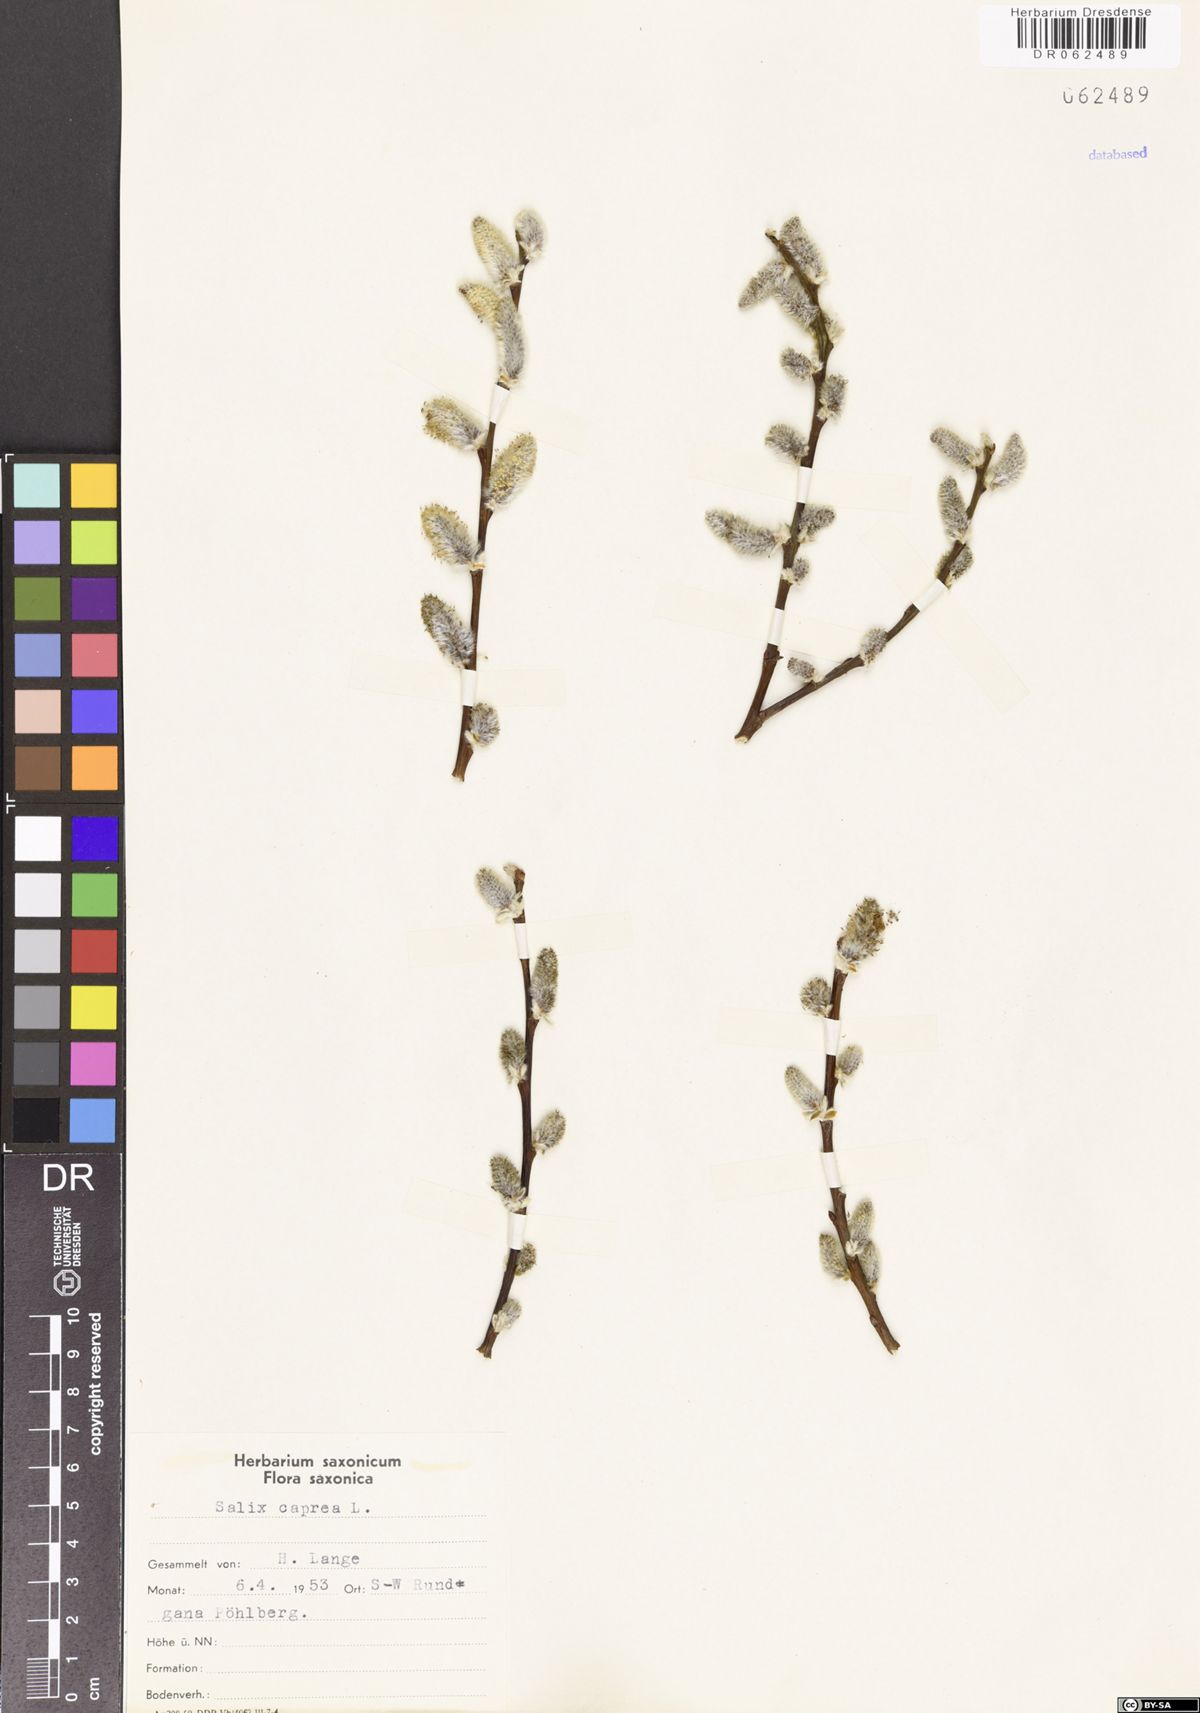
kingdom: Plantae
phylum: Tracheophyta
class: Magnoliopsida
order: Malpighiales
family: Salicaceae
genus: Salix
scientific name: Salix caprea
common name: Goat willow
